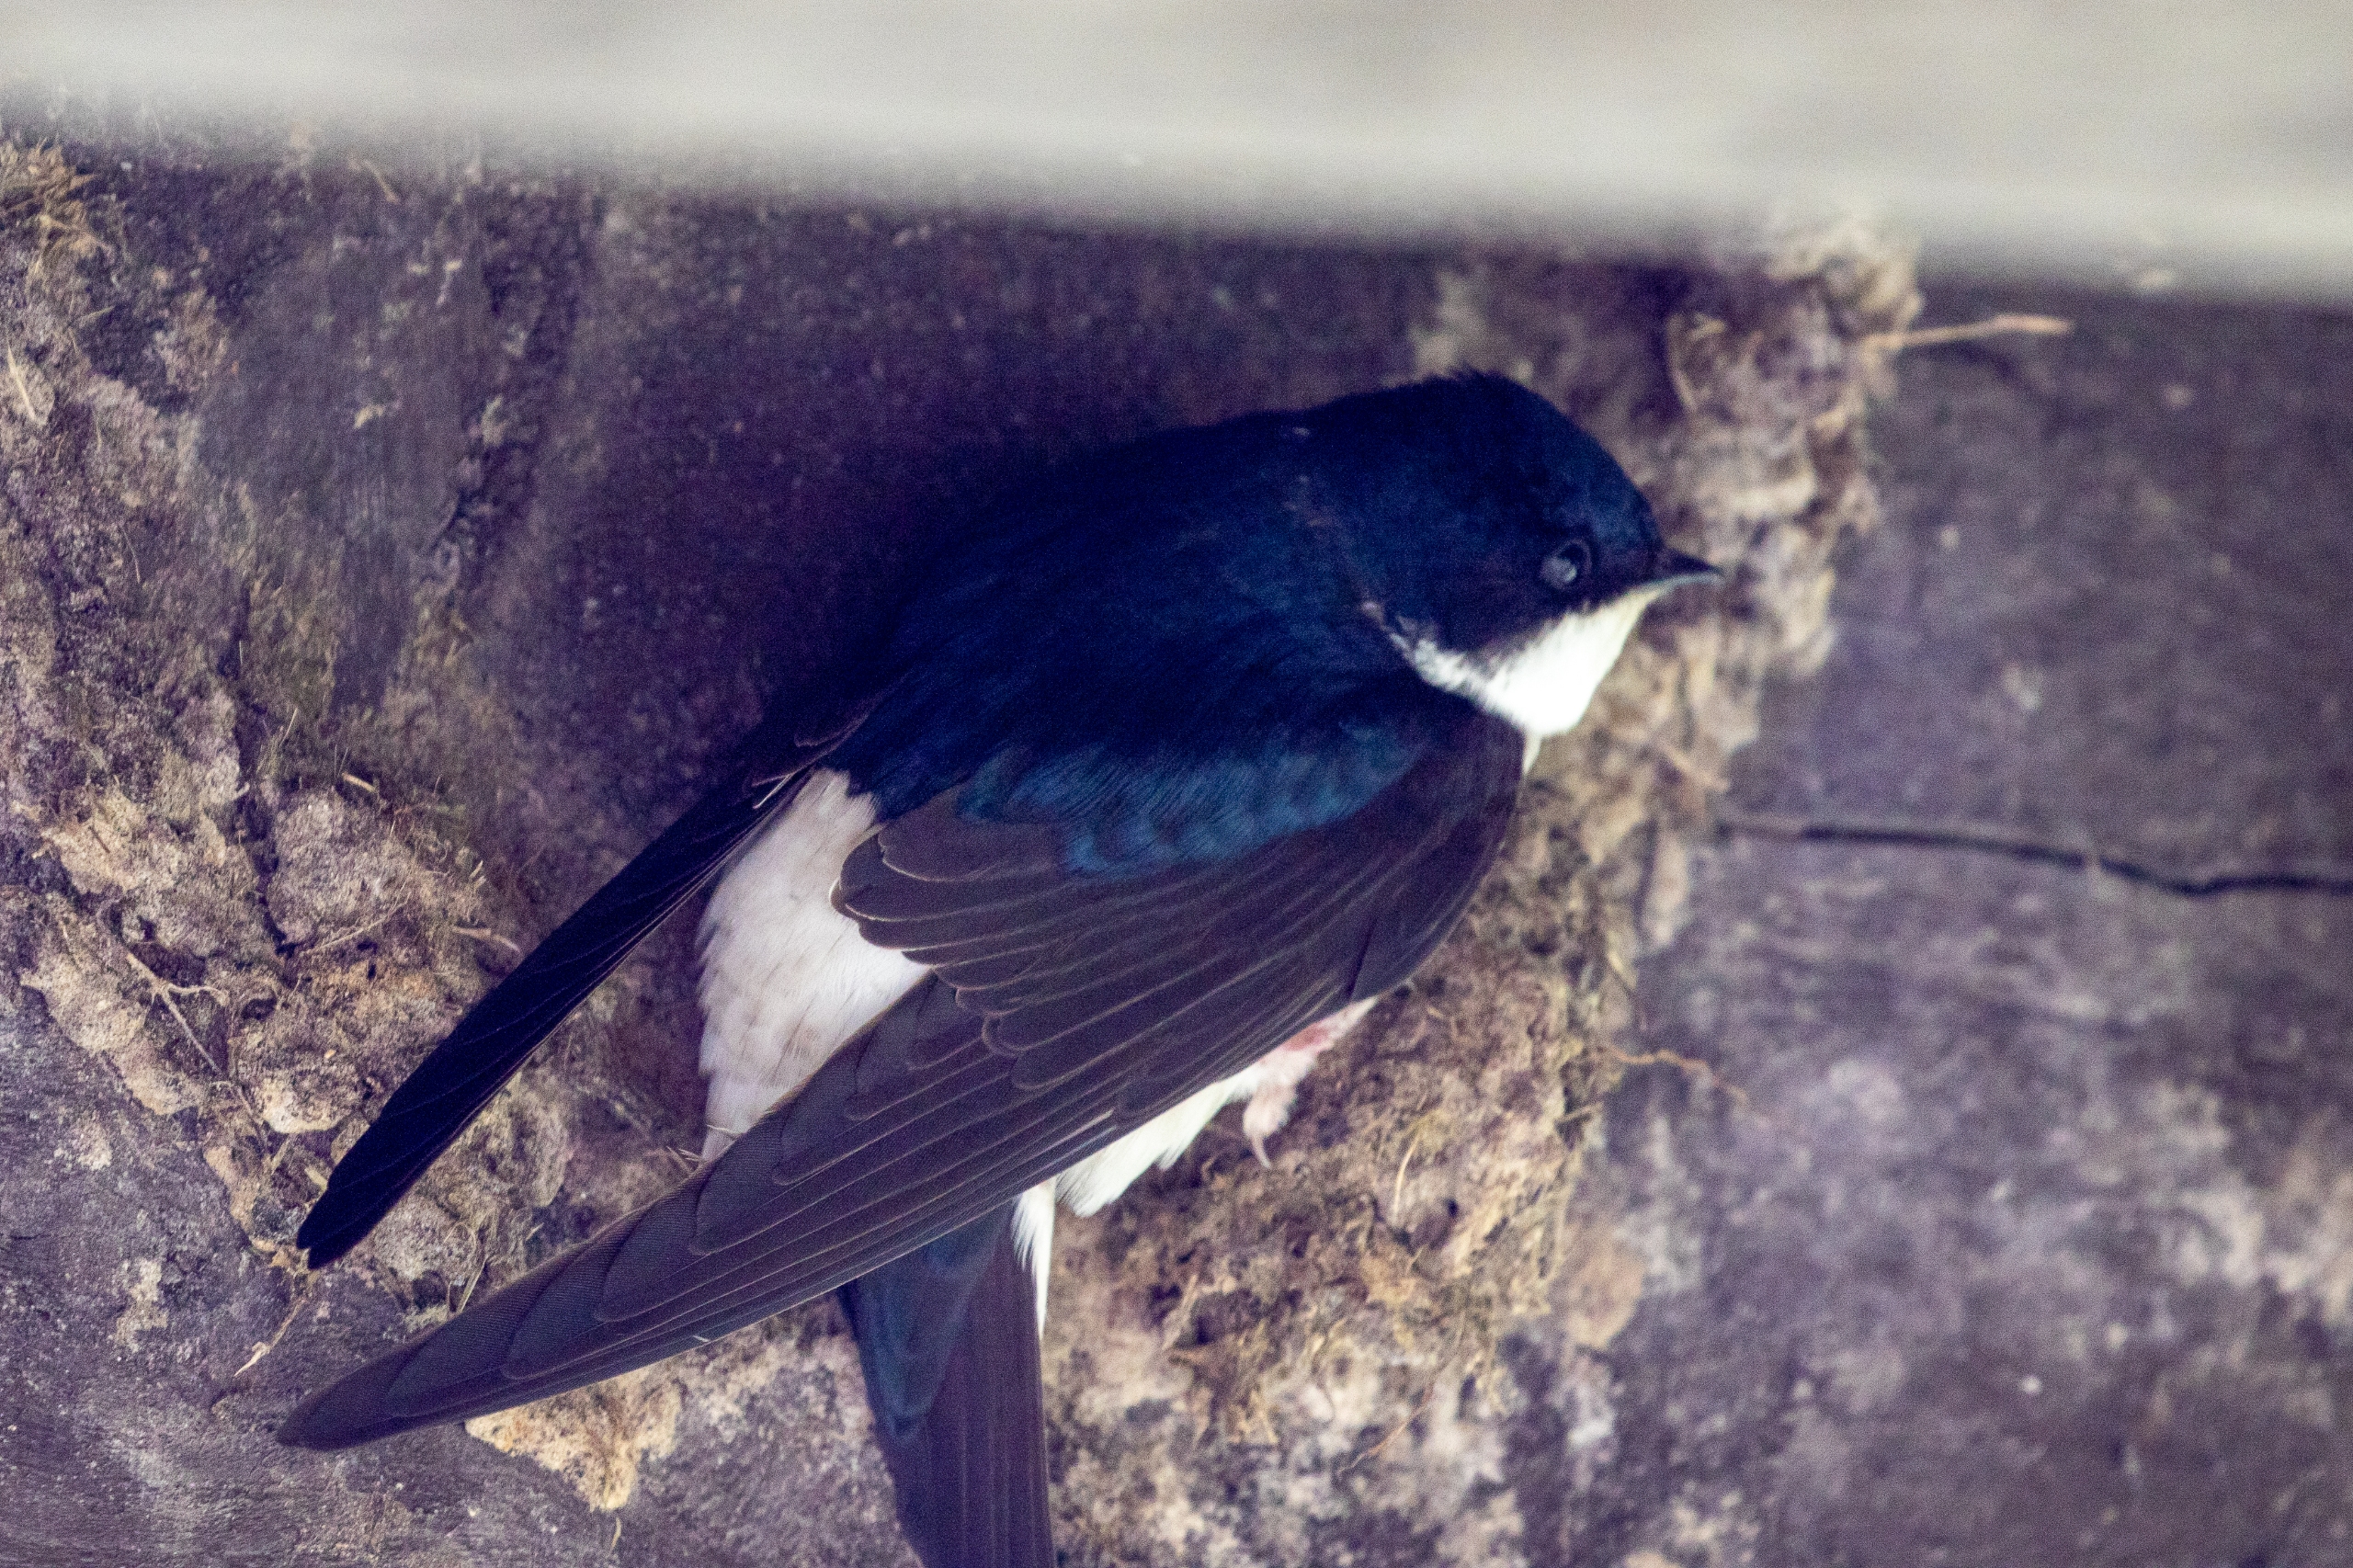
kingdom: Animalia
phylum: Chordata
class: Aves
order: Passeriformes
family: Hirundinidae
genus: Delichon
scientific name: Delichon urbicum
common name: Bysvale
